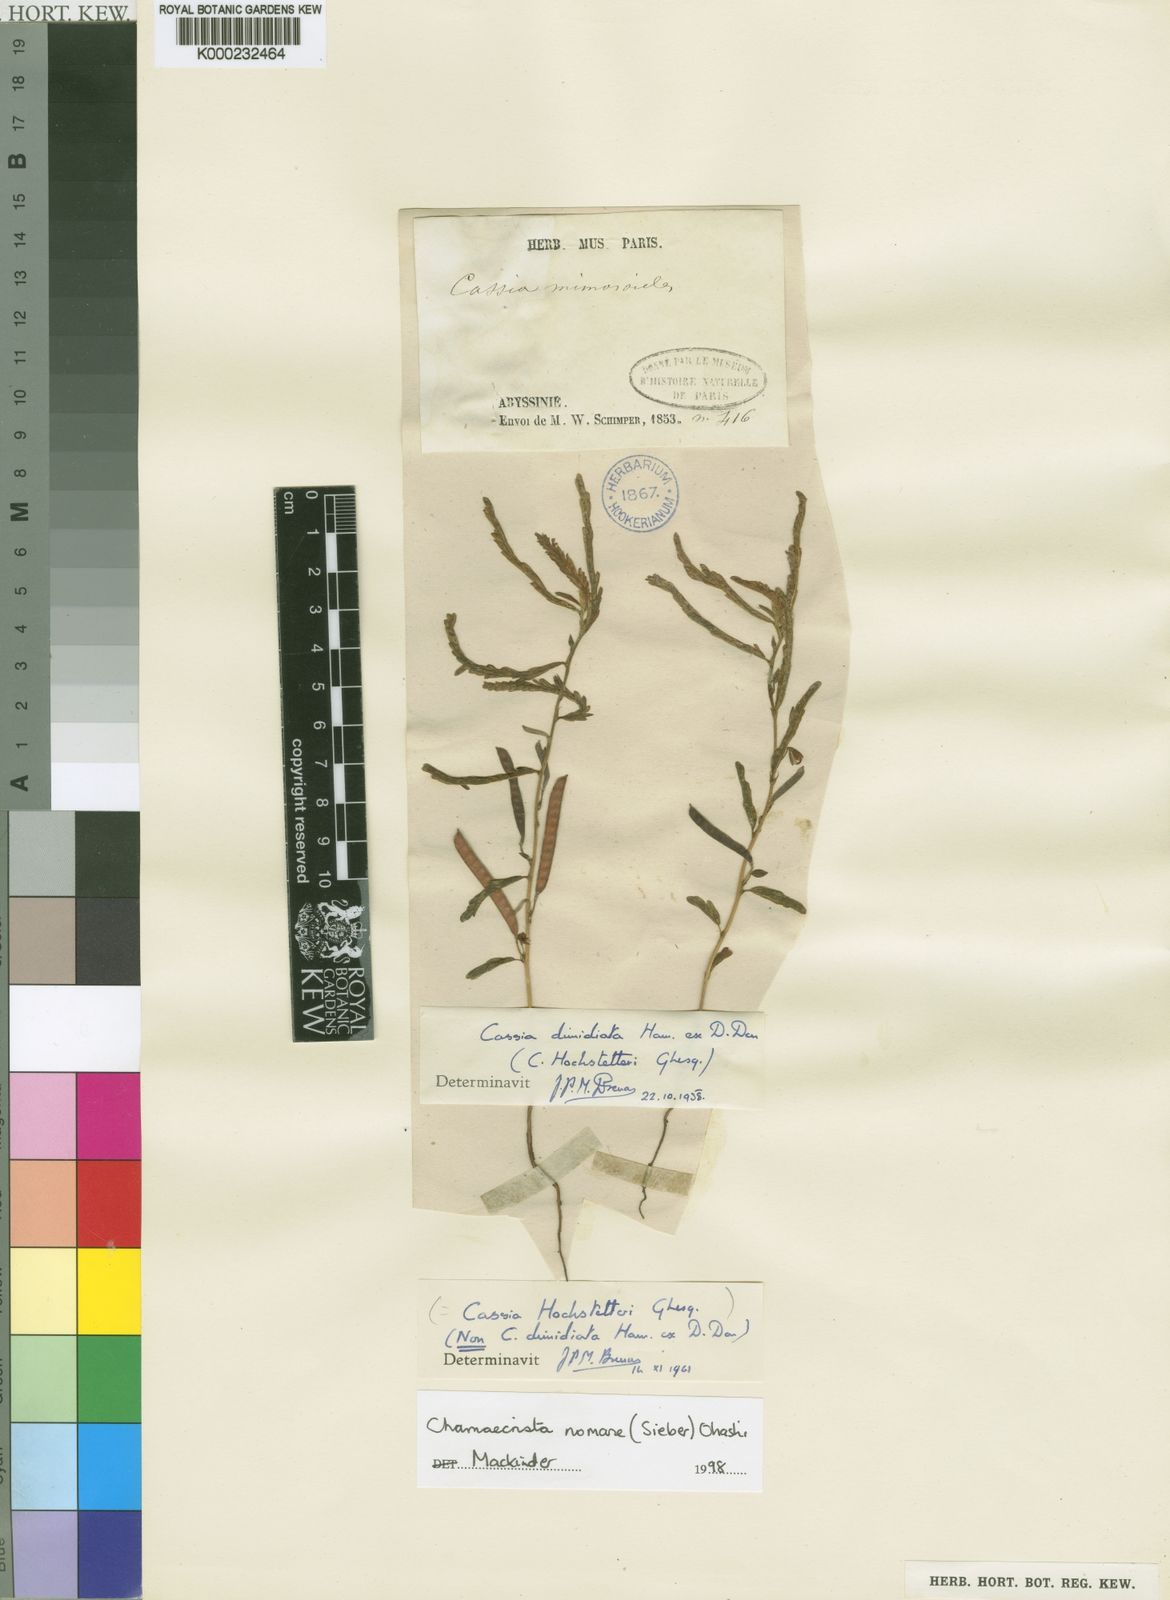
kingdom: Plantae
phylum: Tracheophyta
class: Magnoliopsida
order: Fabales
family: Fabaceae
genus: Chamaecrista
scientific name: Chamaecrista
